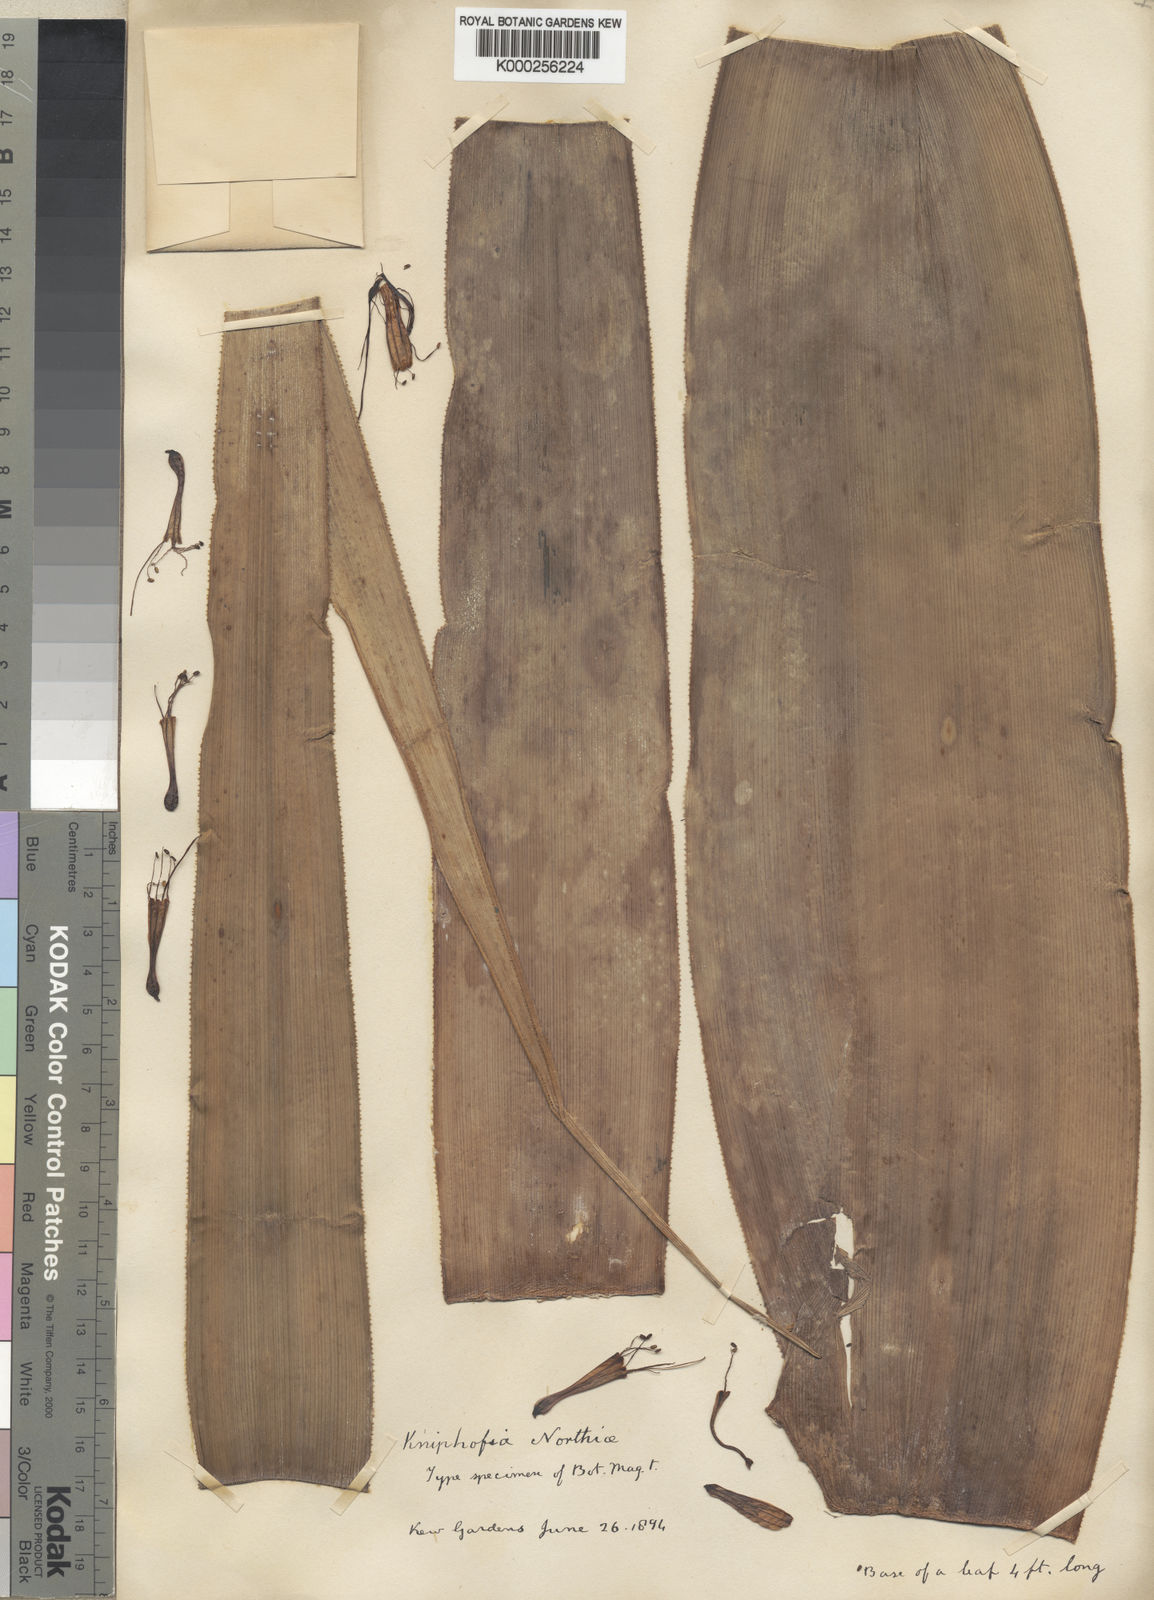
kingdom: Plantae
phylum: Tracheophyta
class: Liliopsida
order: Asparagales
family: Asphodelaceae
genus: Kniphofia
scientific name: Kniphofia northiae
